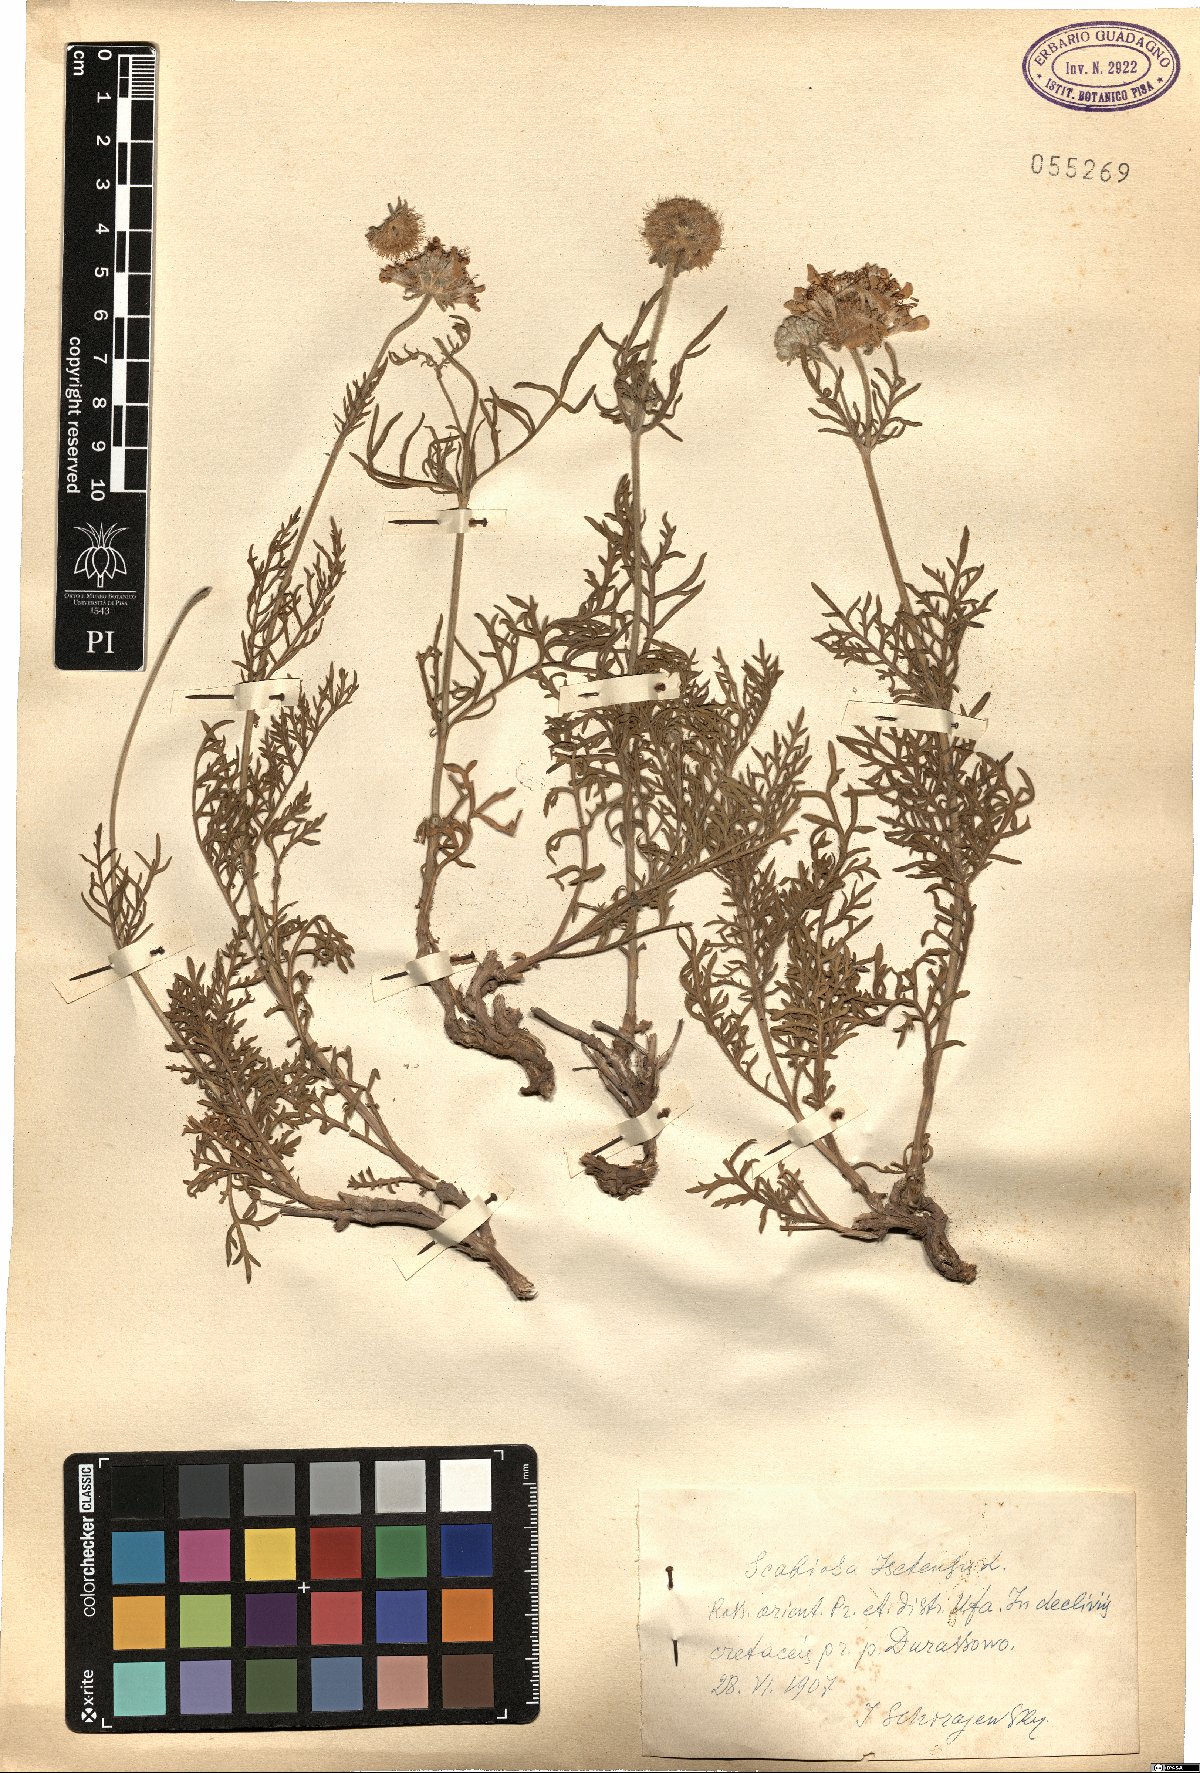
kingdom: Plantae
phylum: Tracheophyta
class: Magnoliopsida
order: Dipsacales
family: Caprifoliaceae
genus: Lomelosia
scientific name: Lomelosia isetensis
